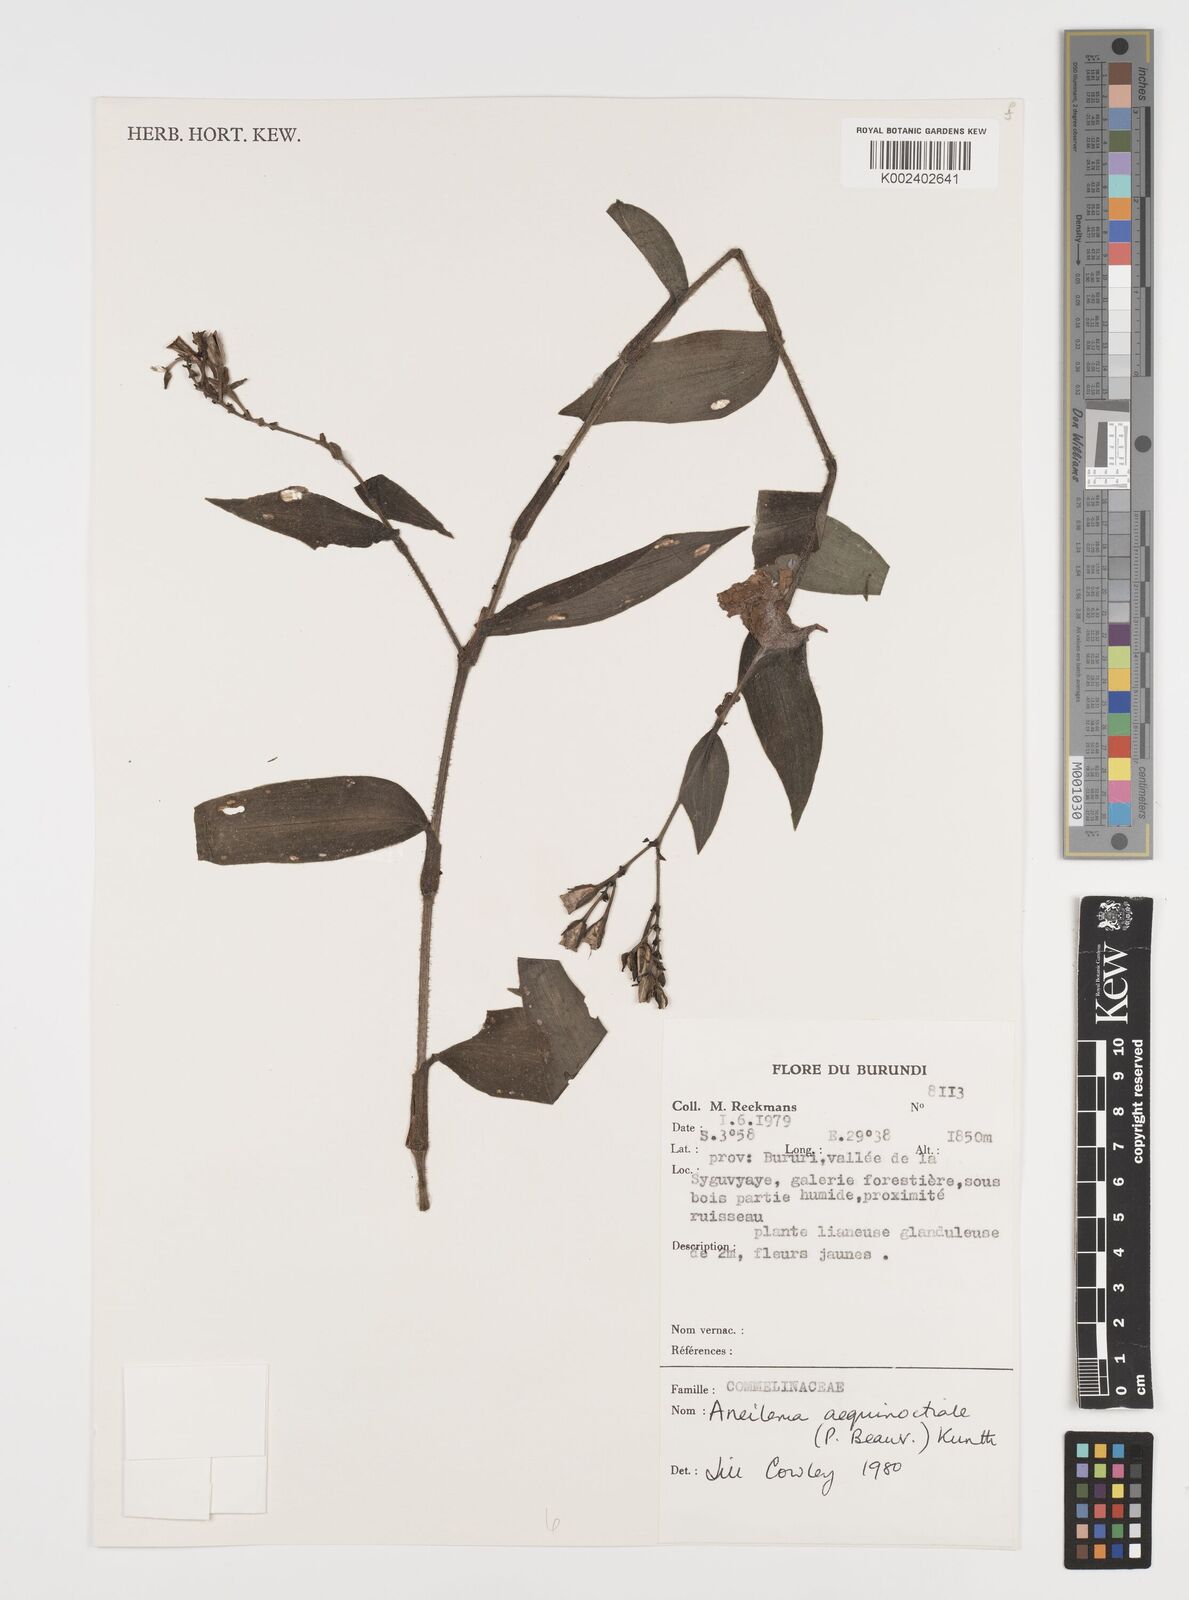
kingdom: Plantae
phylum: Tracheophyta
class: Liliopsida
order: Commelinales
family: Commelinaceae
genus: Aneilema
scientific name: Aneilema aequinoctiale
